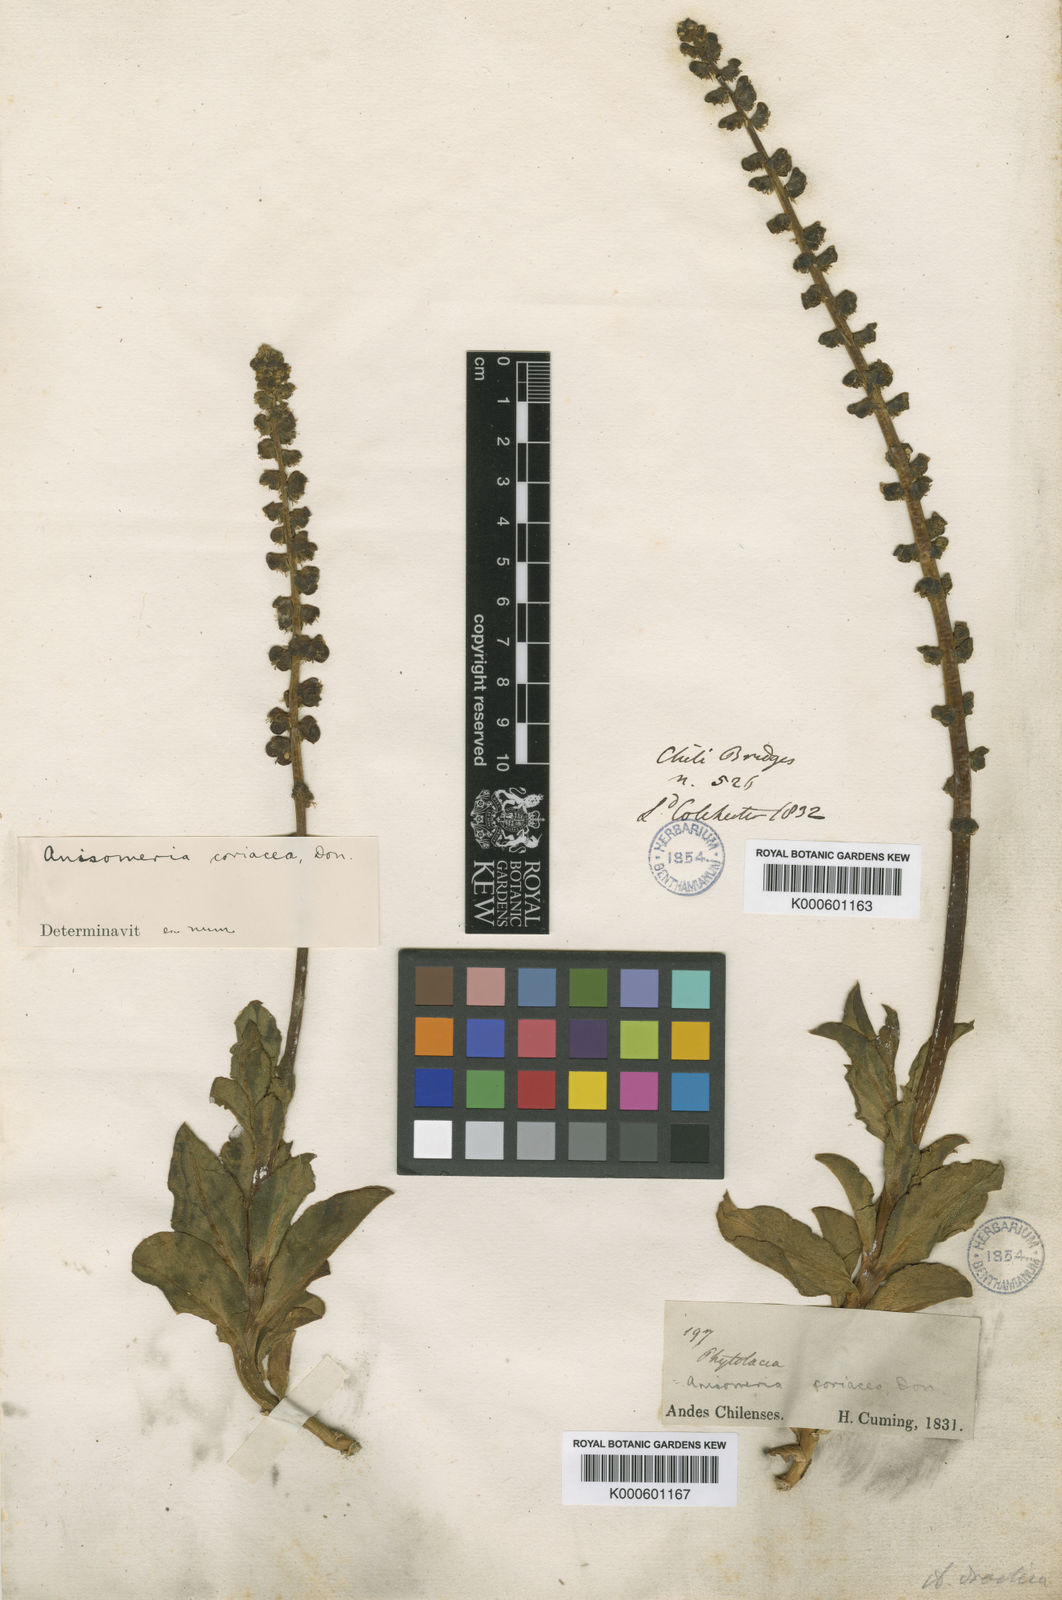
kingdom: Plantae
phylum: Tracheophyta
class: Magnoliopsida
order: Caryophyllales
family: Phytolaccaceae
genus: Anisomeria
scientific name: Anisomeria coriacea
